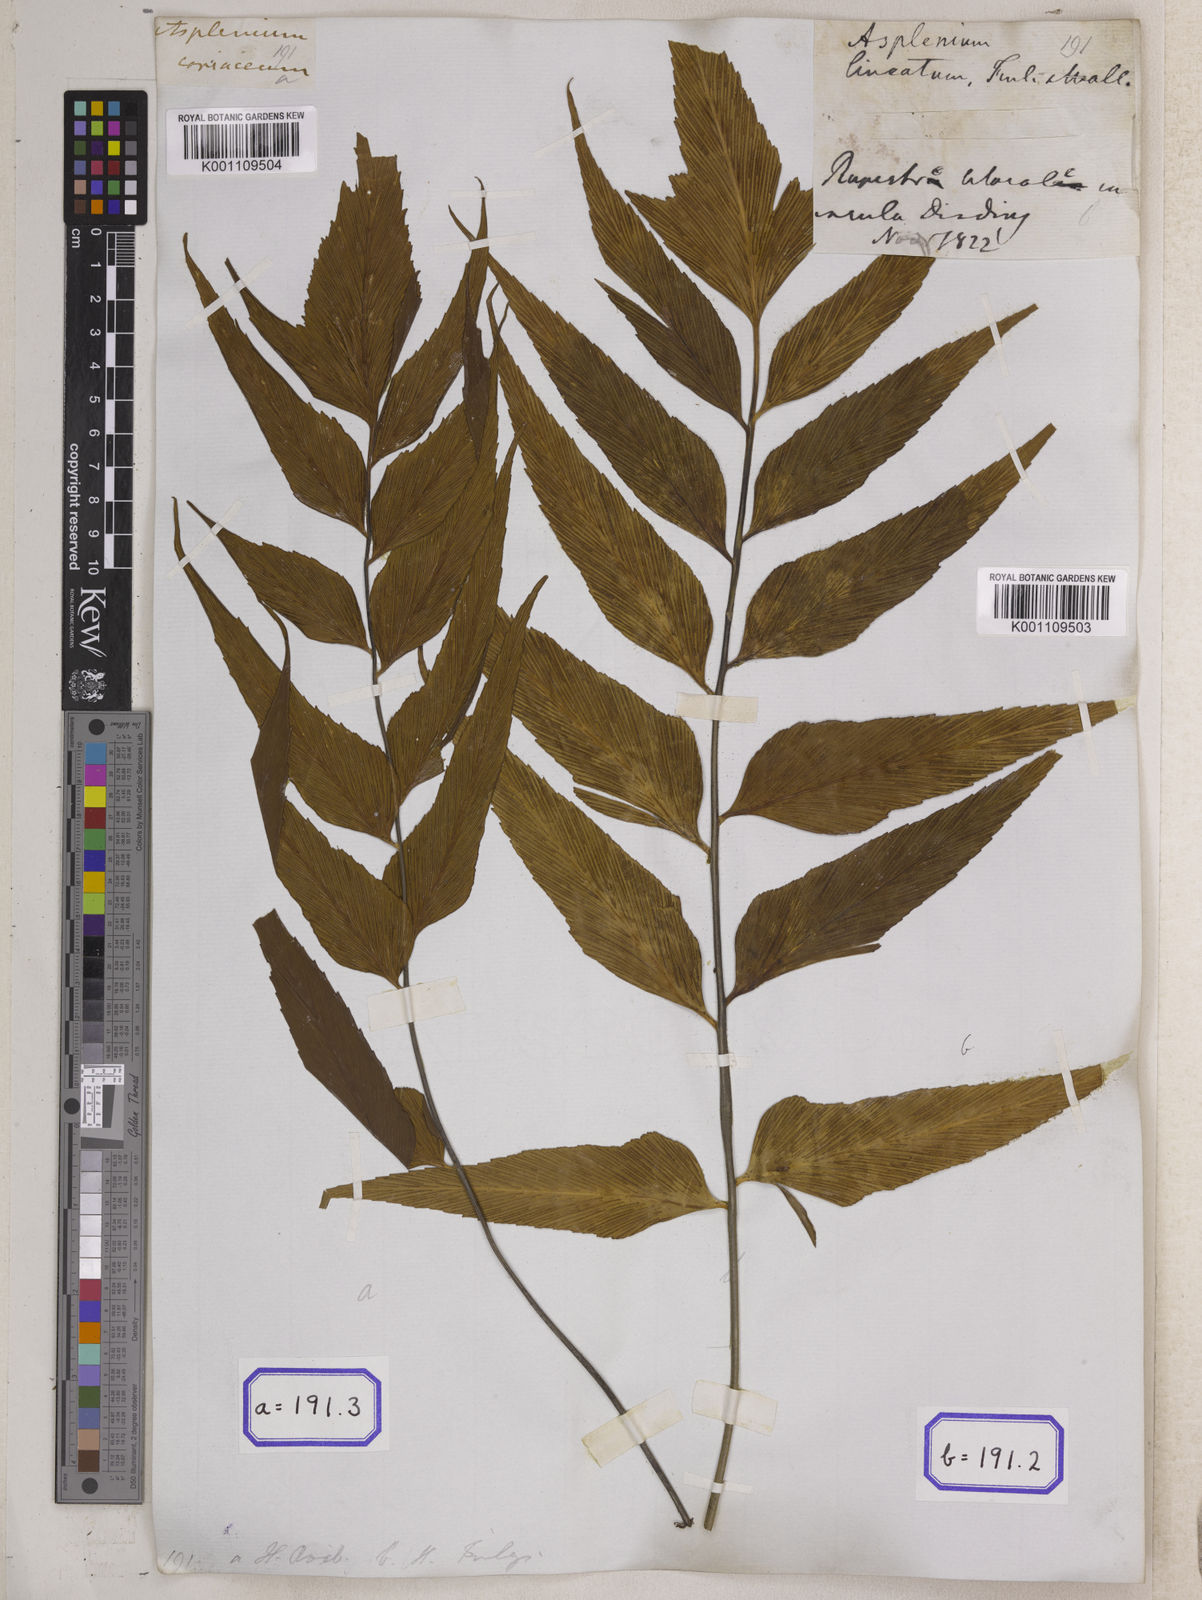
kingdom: Plantae
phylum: Tracheophyta
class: Polypodiopsida
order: Polypodiales
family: Aspleniaceae
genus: Asplenium
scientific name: Asplenium simile
